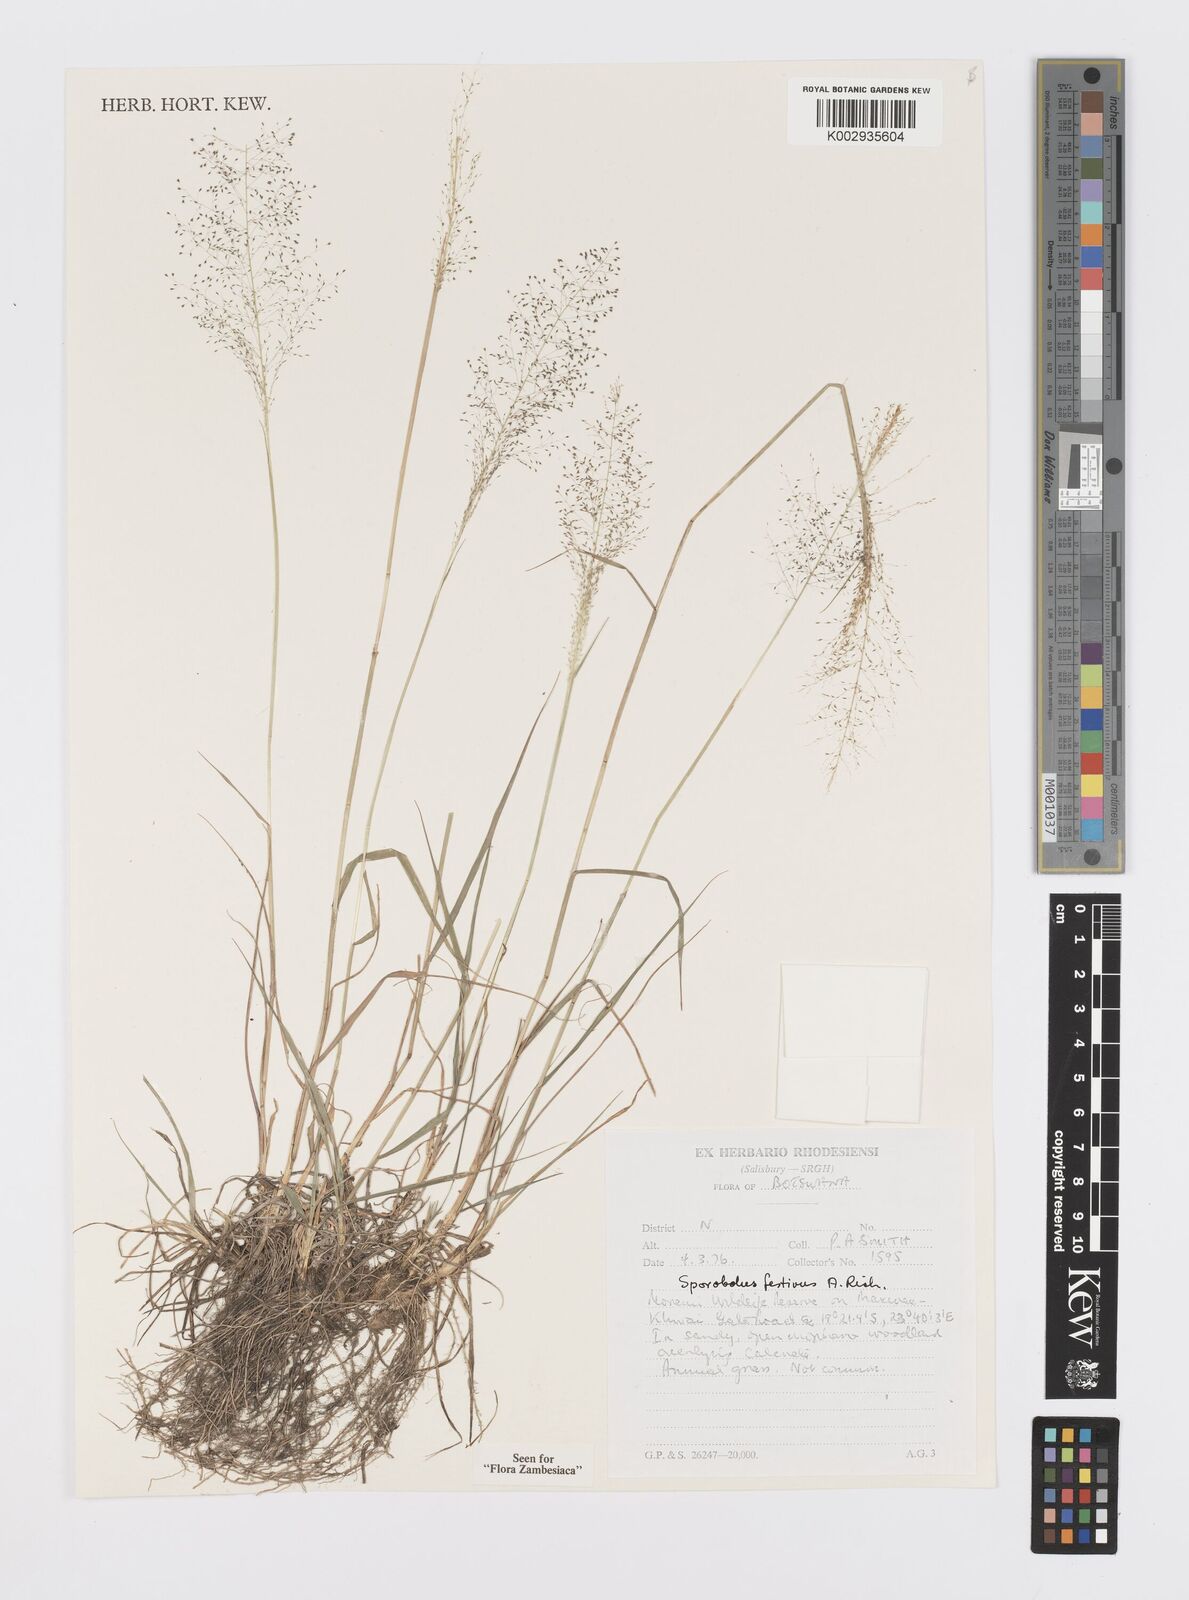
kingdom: Plantae
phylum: Tracheophyta
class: Liliopsida
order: Poales
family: Poaceae
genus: Sporobolus
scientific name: Sporobolus festivus
